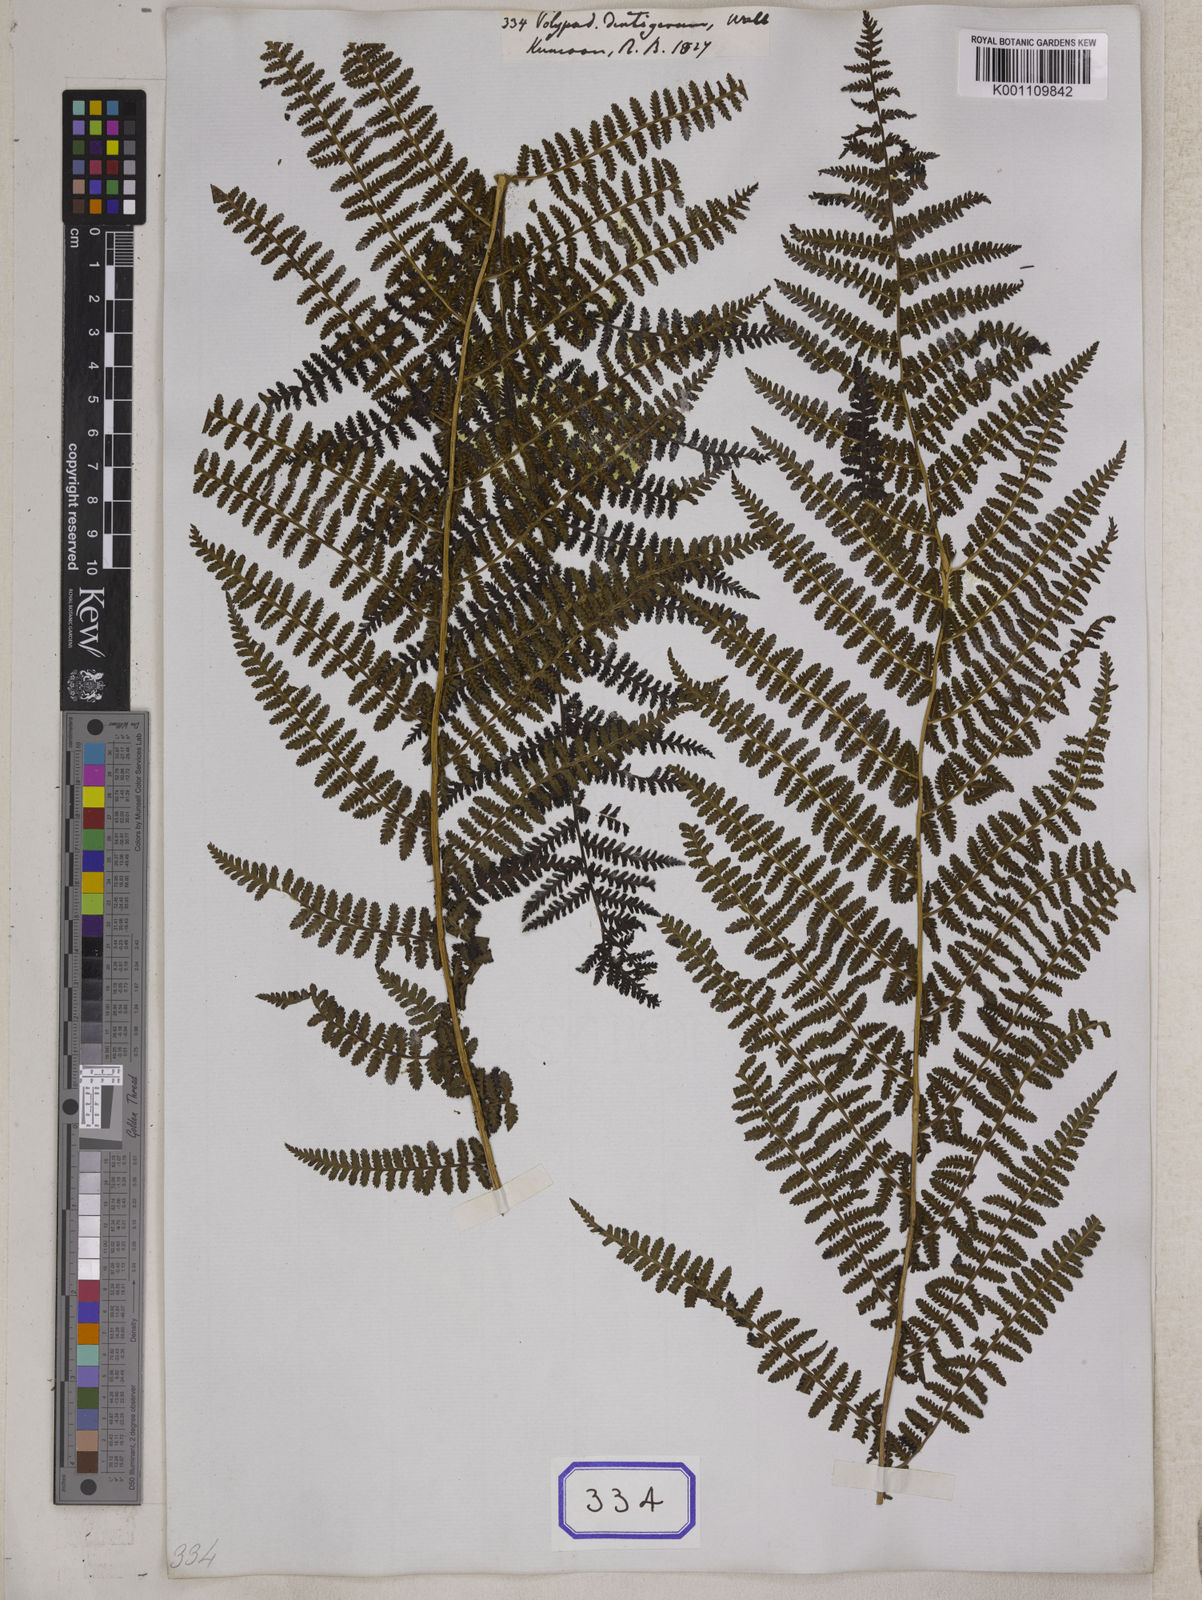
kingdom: Plantae
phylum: Tracheophyta
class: Polypodiopsida
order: Polypodiales
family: Athyriaceae
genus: Athyrium
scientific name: Athyrium attenuatum
